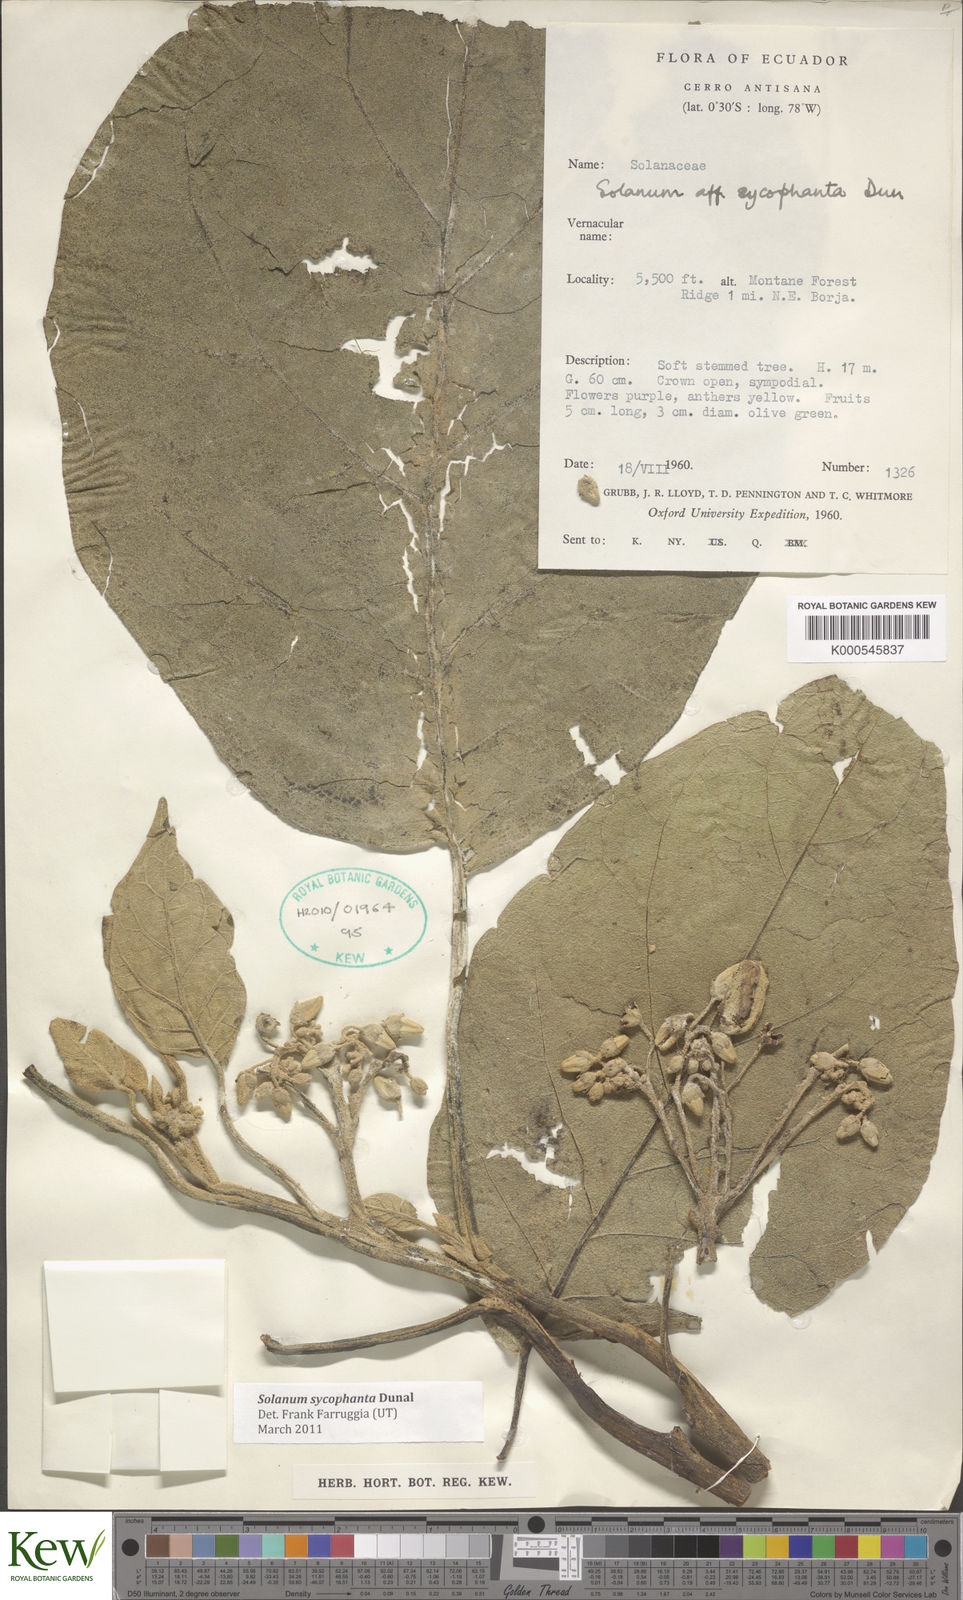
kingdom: Plantae
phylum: Tracheophyta
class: Magnoliopsida
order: Solanales
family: Solanaceae
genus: Solanum
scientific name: Solanum sycophanta
